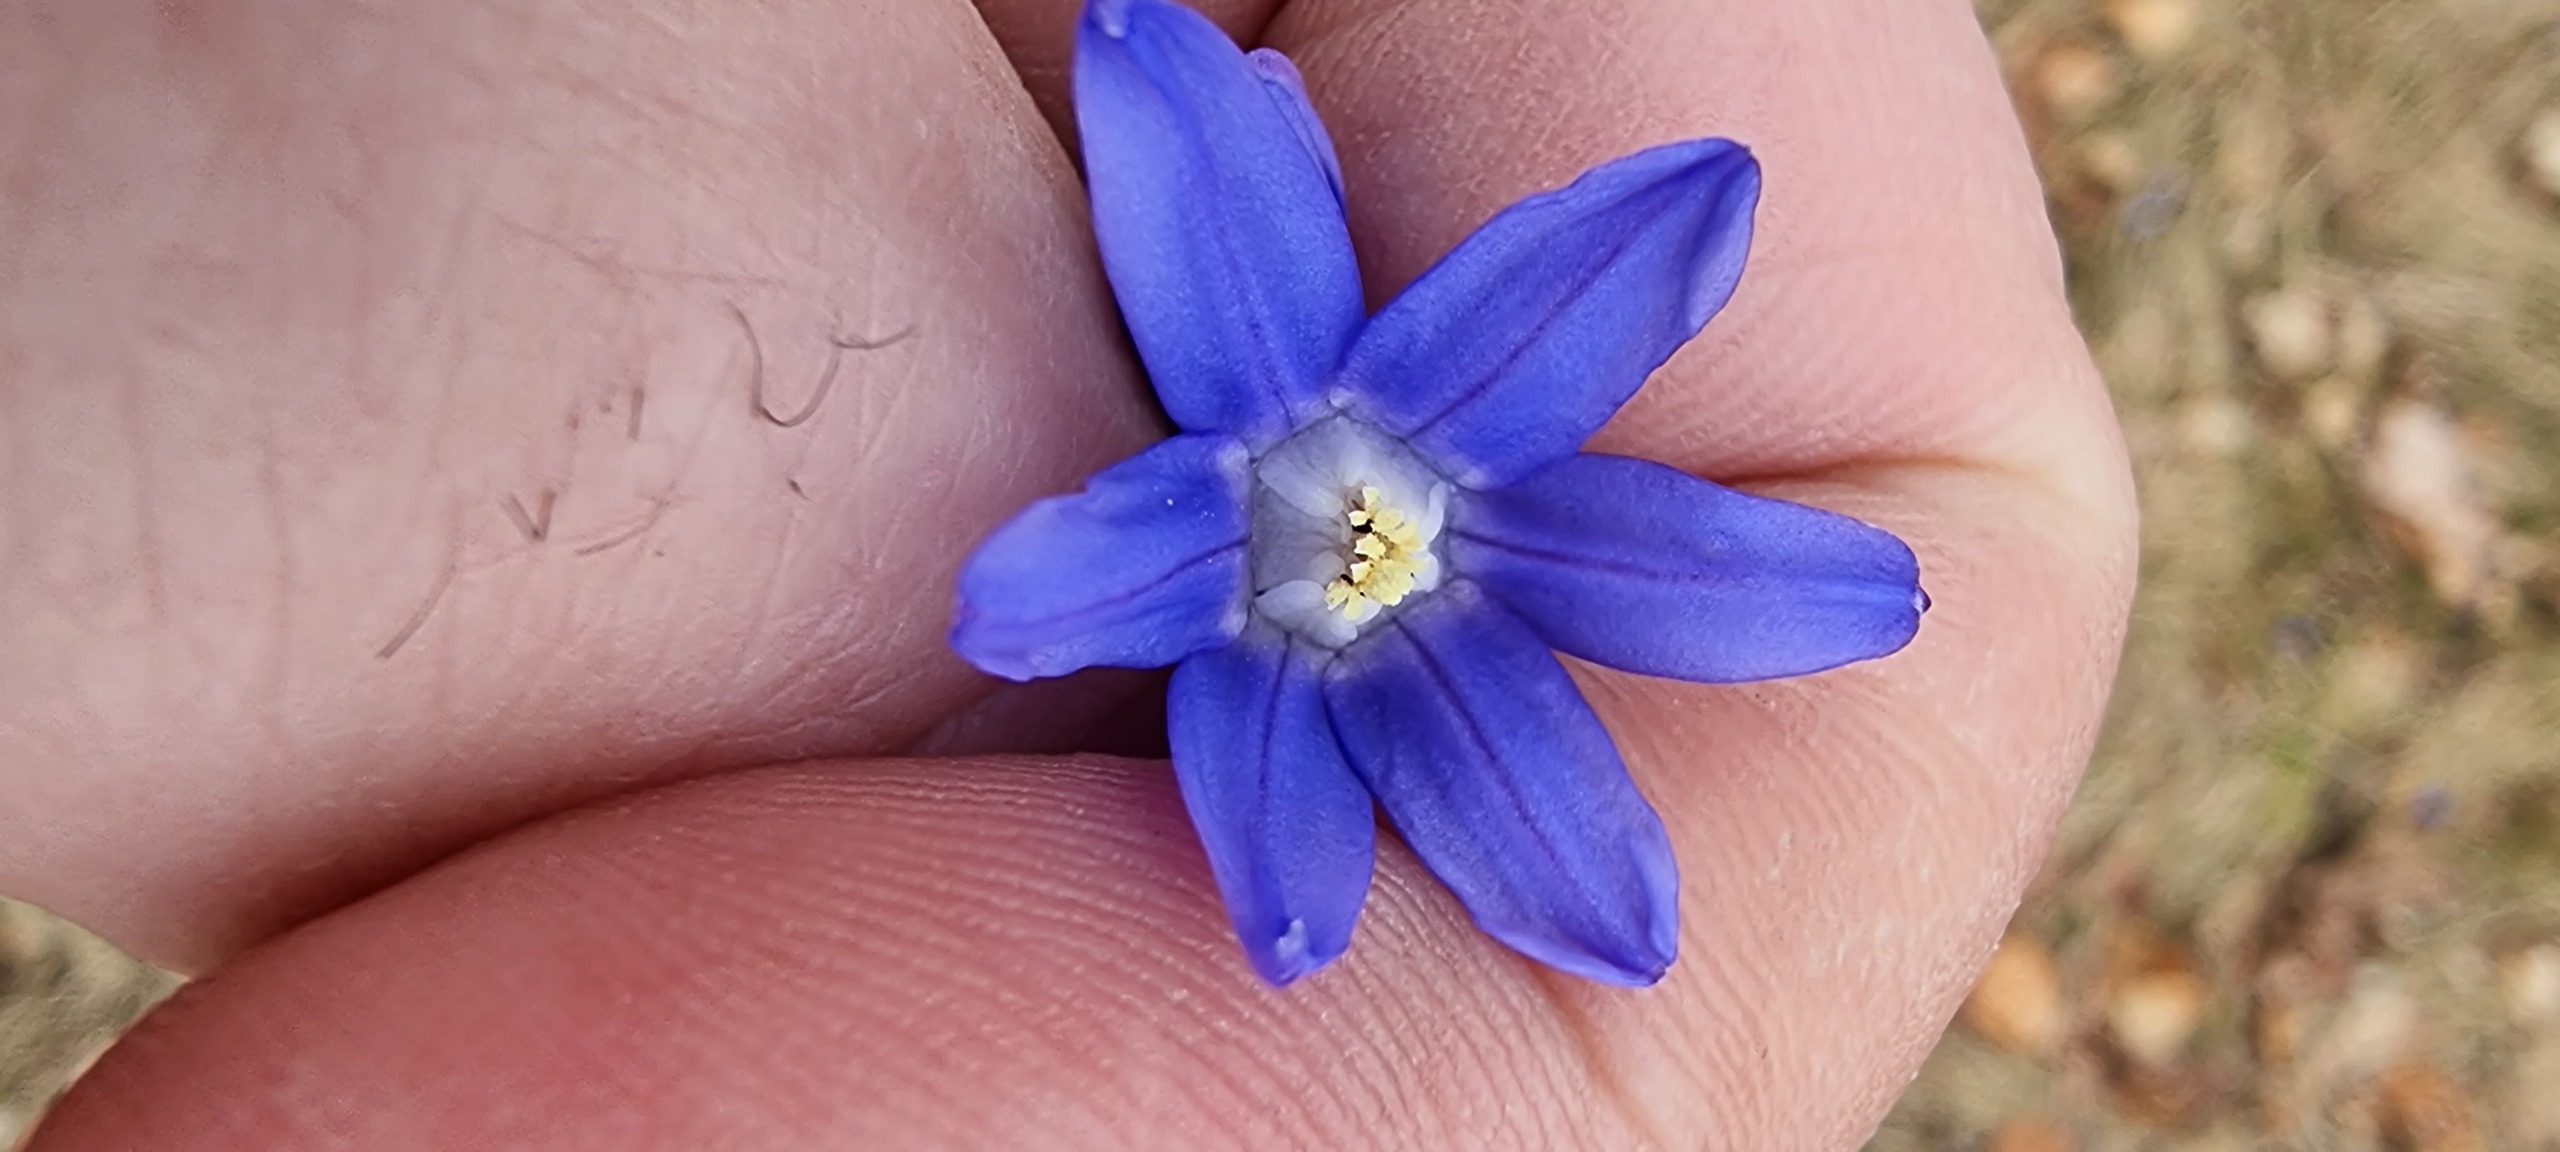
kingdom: Plantae
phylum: Tracheophyta
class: Liliopsida
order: Asparagales
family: Asparagaceae
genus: Scilla
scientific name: Scilla sardensis
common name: Liden snepryd
